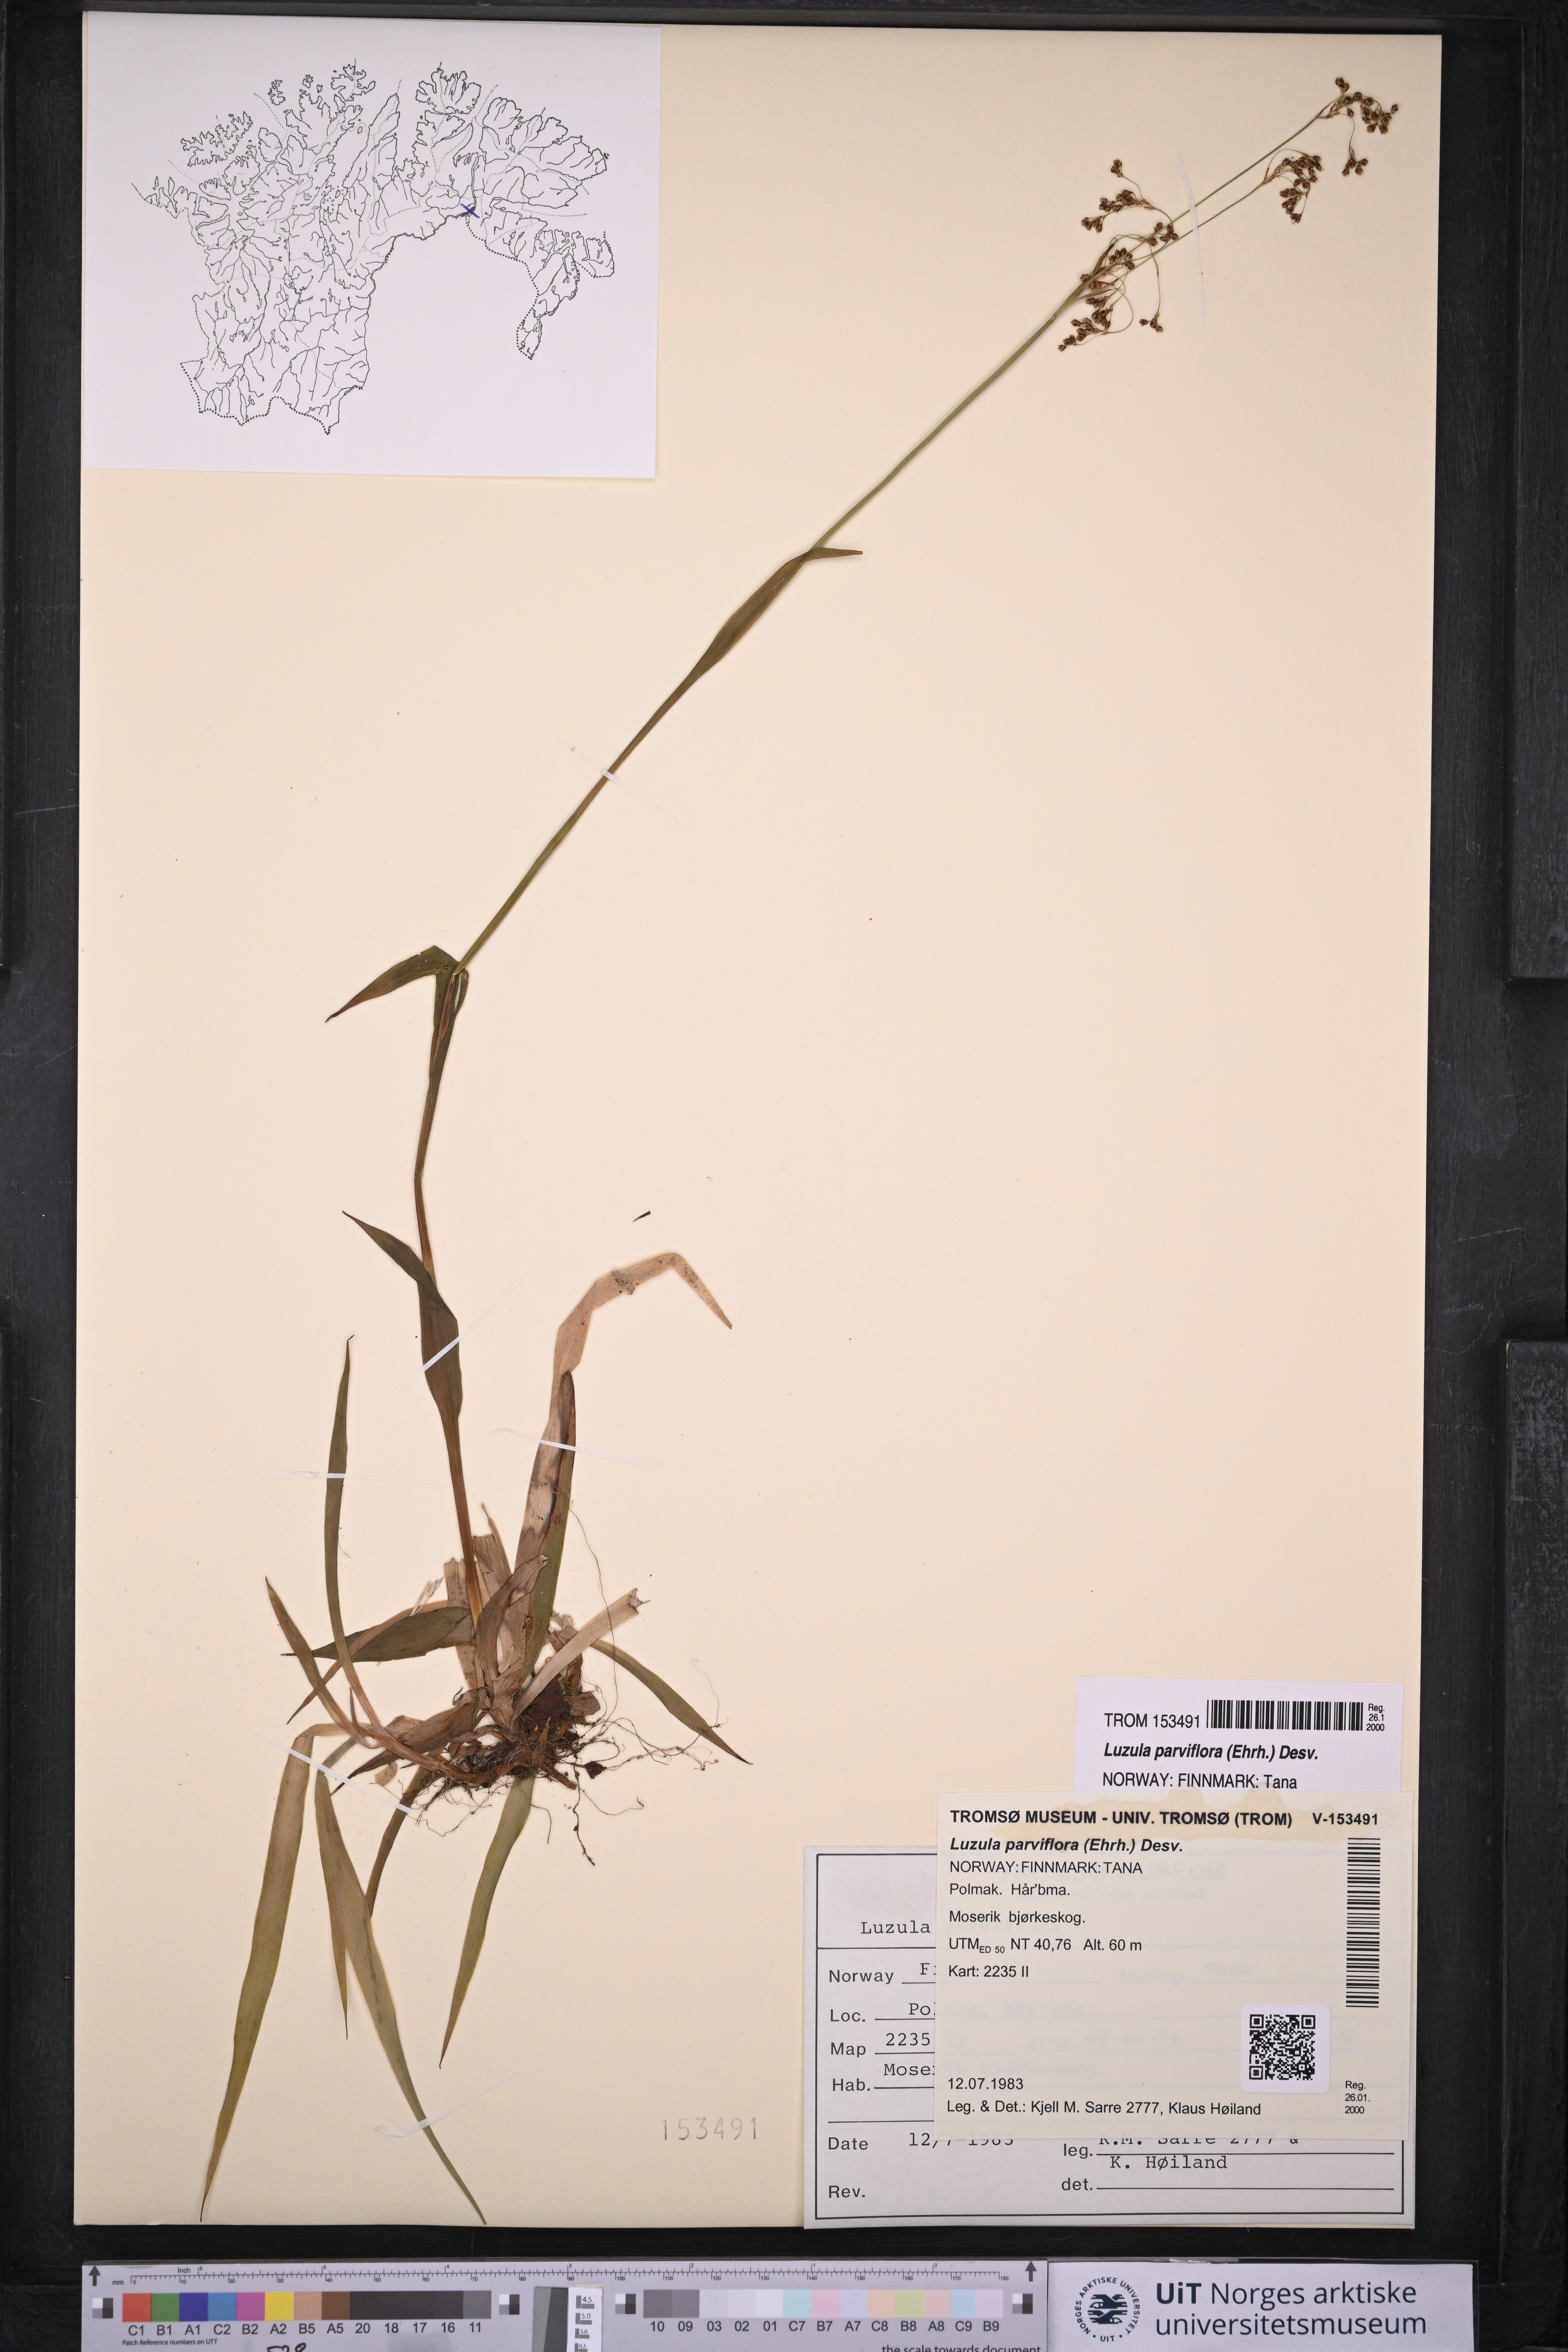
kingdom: Plantae
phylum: Tracheophyta
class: Liliopsida
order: Poales
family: Juncaceae
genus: Luzula
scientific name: Luzula parviflora
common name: Millet woodrush
